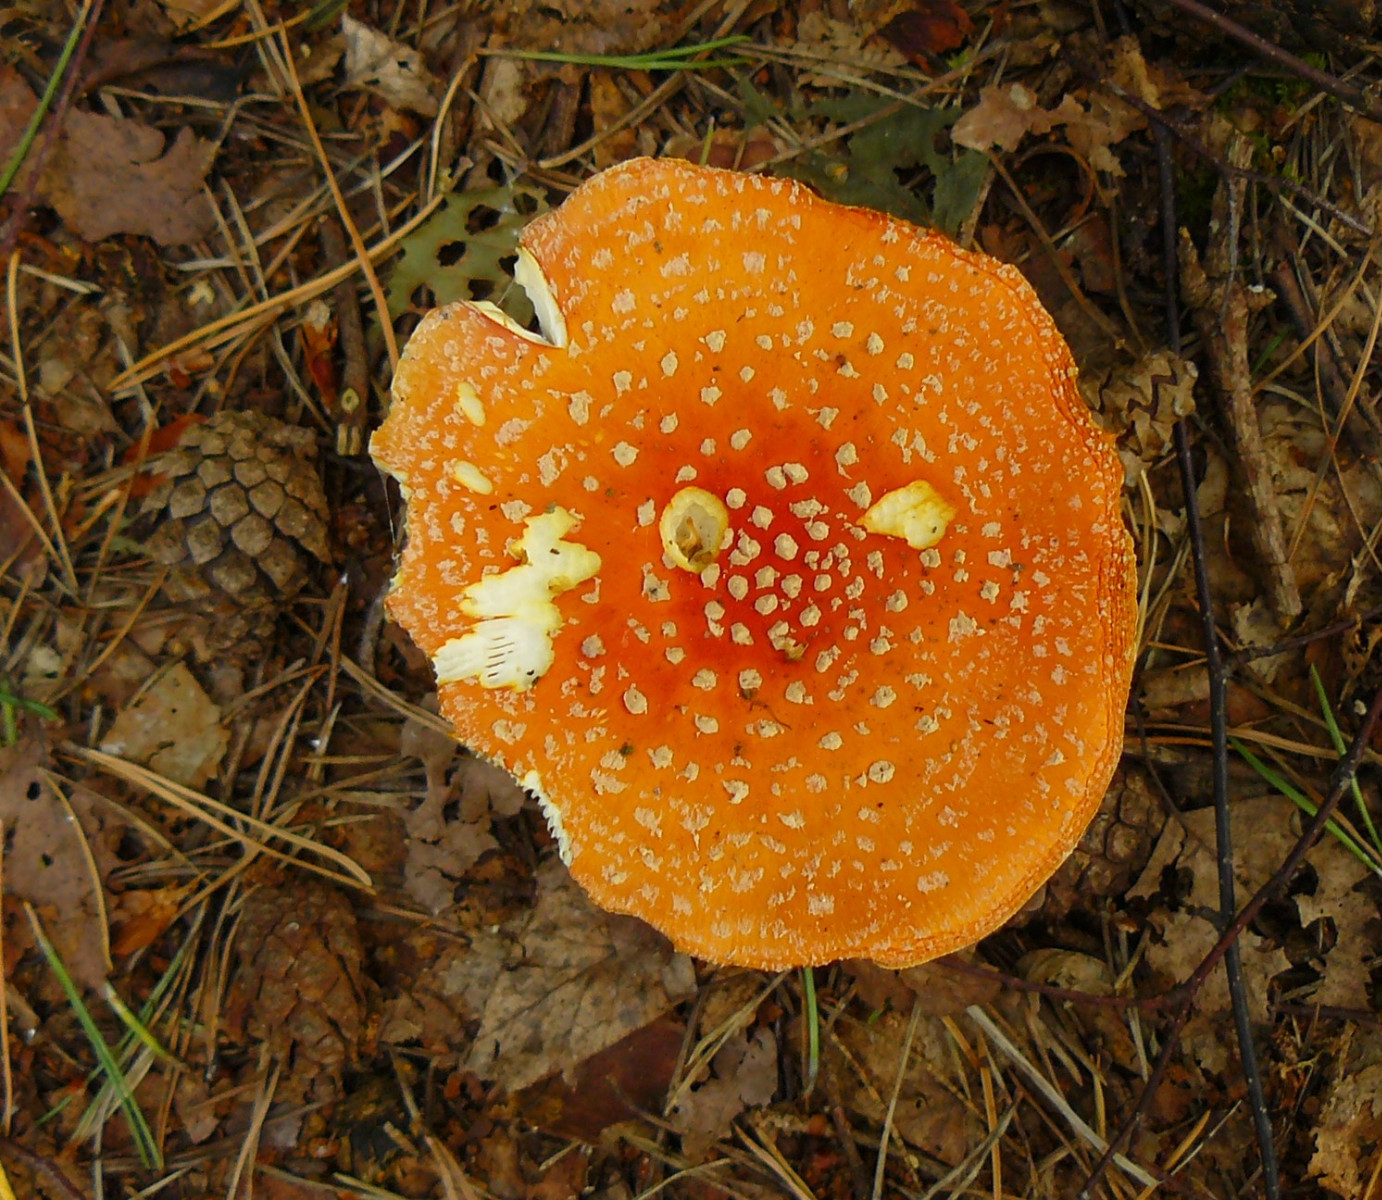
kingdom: Fungi
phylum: Basidiomycota
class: Agaricomycetes
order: Agaricales
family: Amanitaceae
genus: Amanita
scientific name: Amanita muscaria
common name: rød fluesvamp
